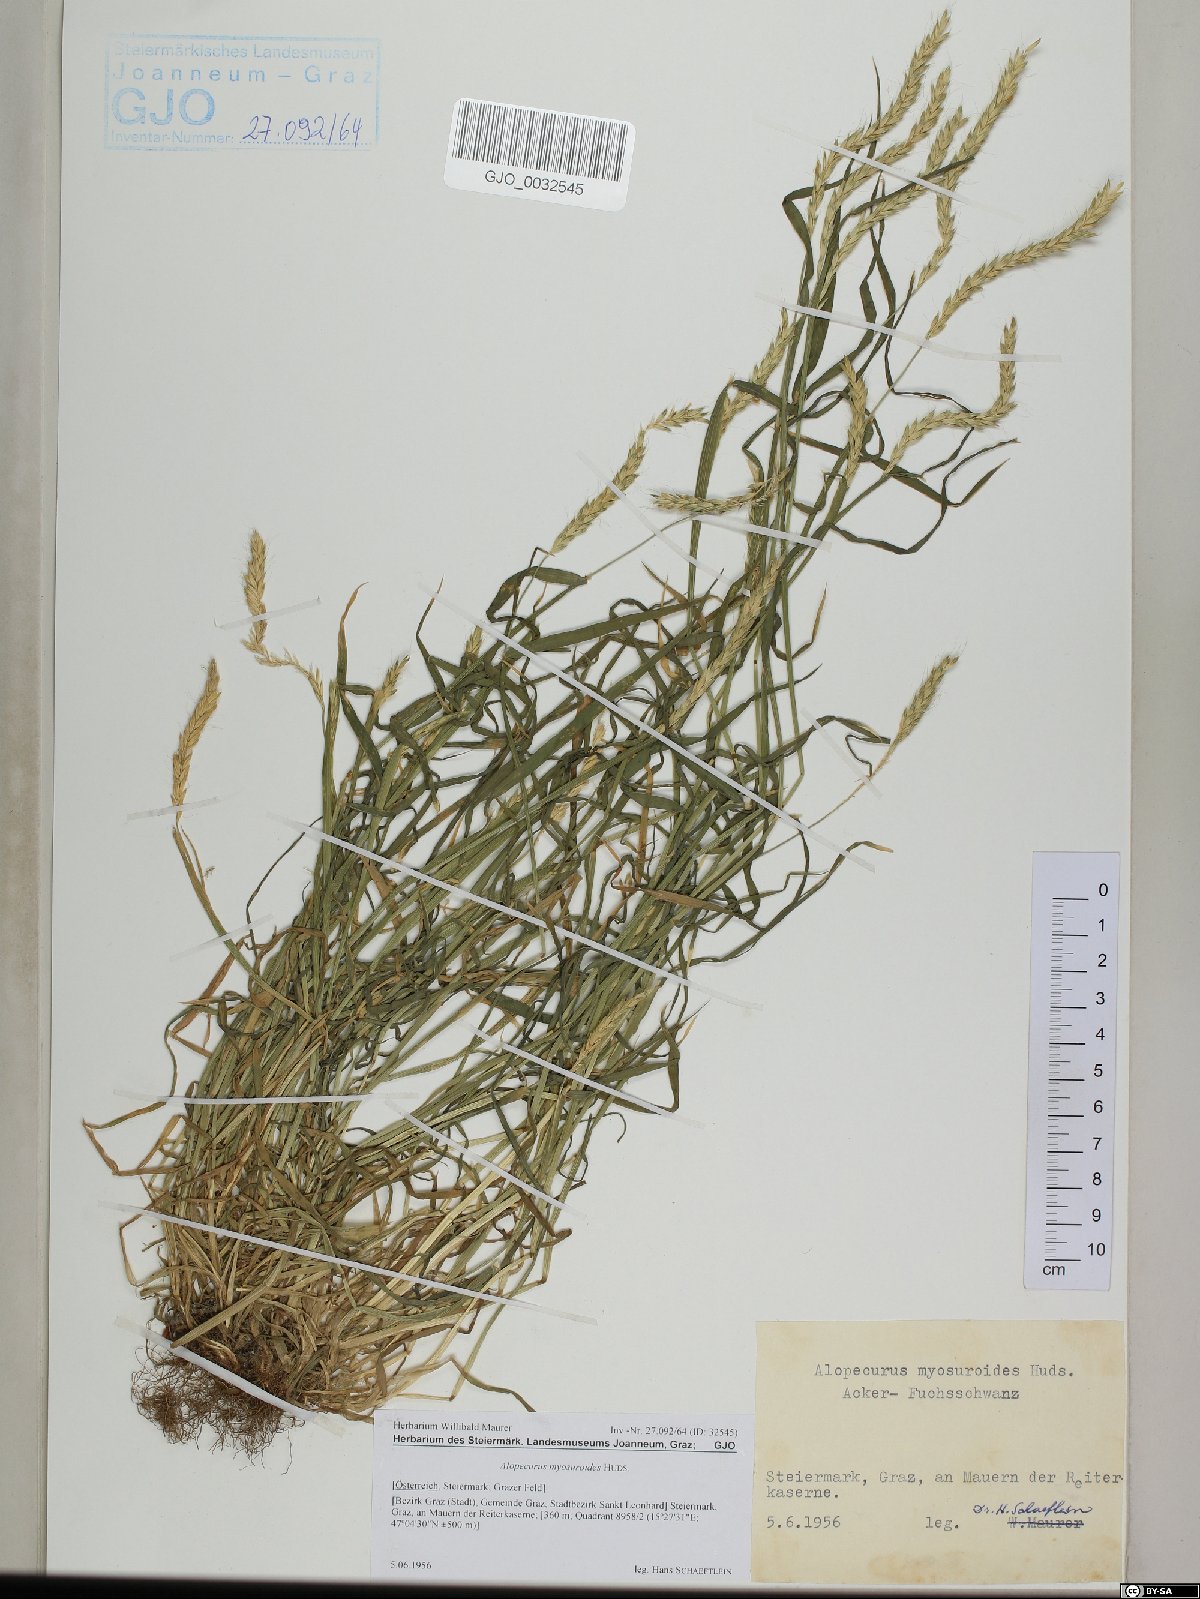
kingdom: Plantae
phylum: Tracheophyta
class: Liliopsida
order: Poales
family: Poaceae
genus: Alopecurus
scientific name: Alopecurus myosuroides
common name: Black-grass
